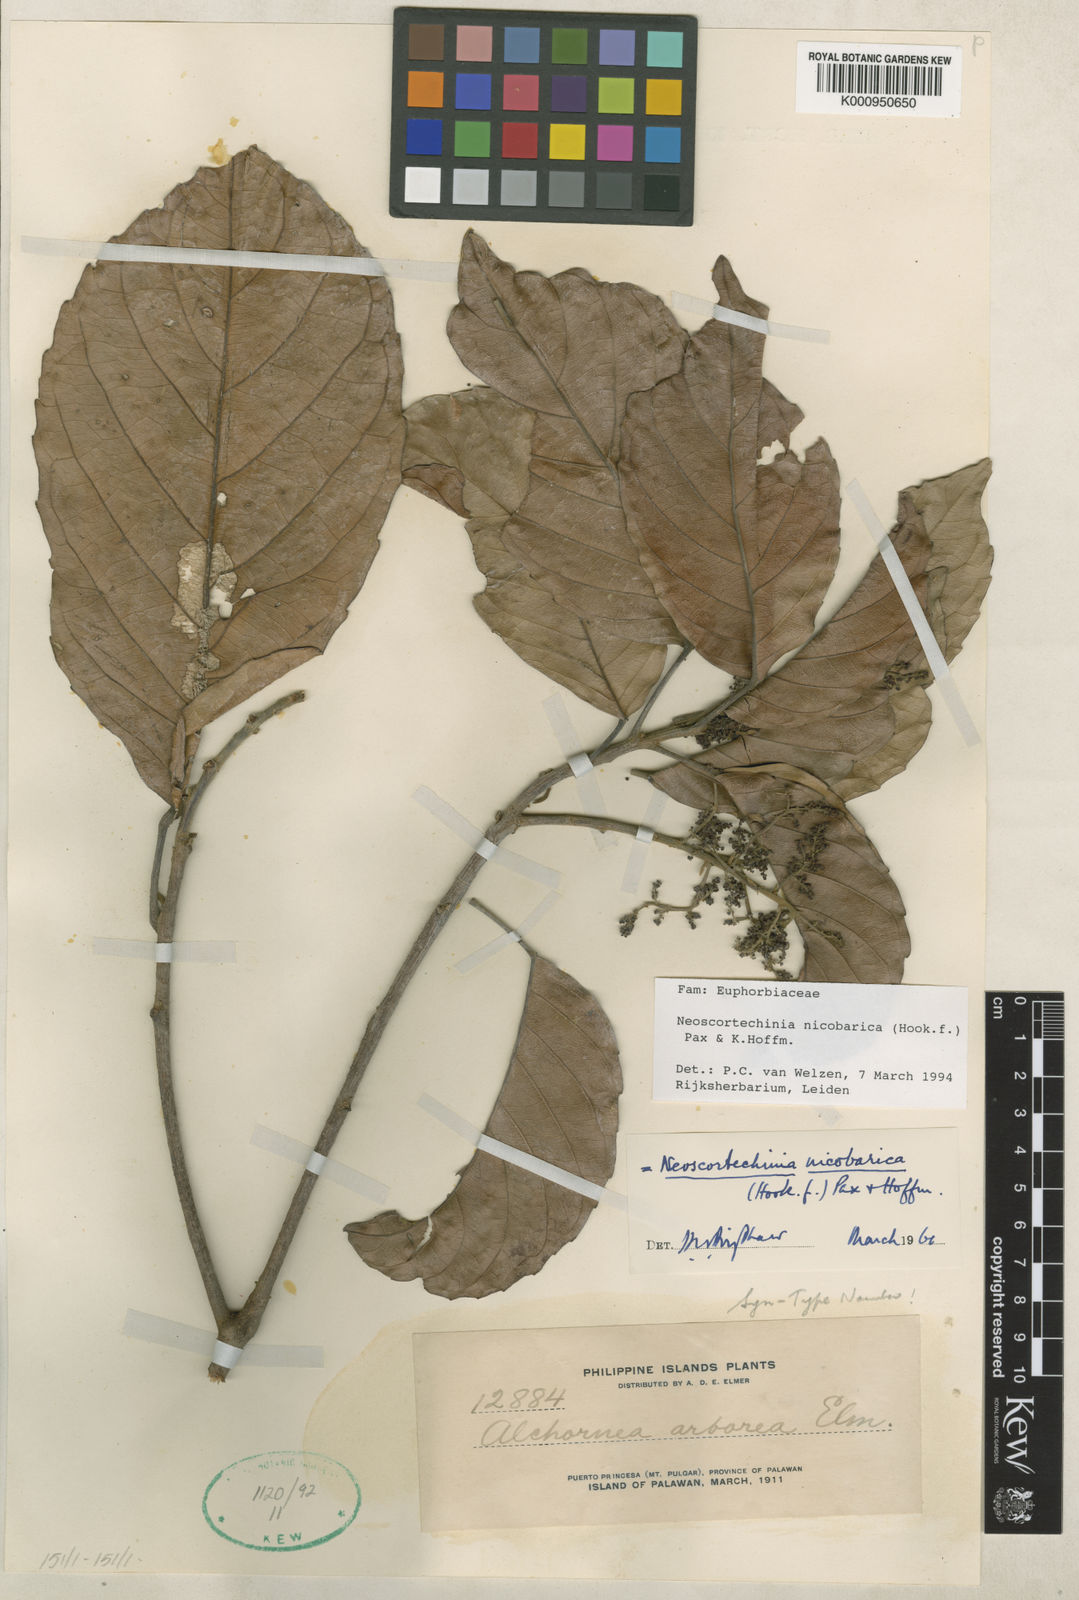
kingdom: Plantae
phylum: Tracheophyta
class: Magnoliopsida
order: Malpighiales
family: Euphorbiaceae
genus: Neoscortechinia
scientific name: Neoscortechinia nicobarica
